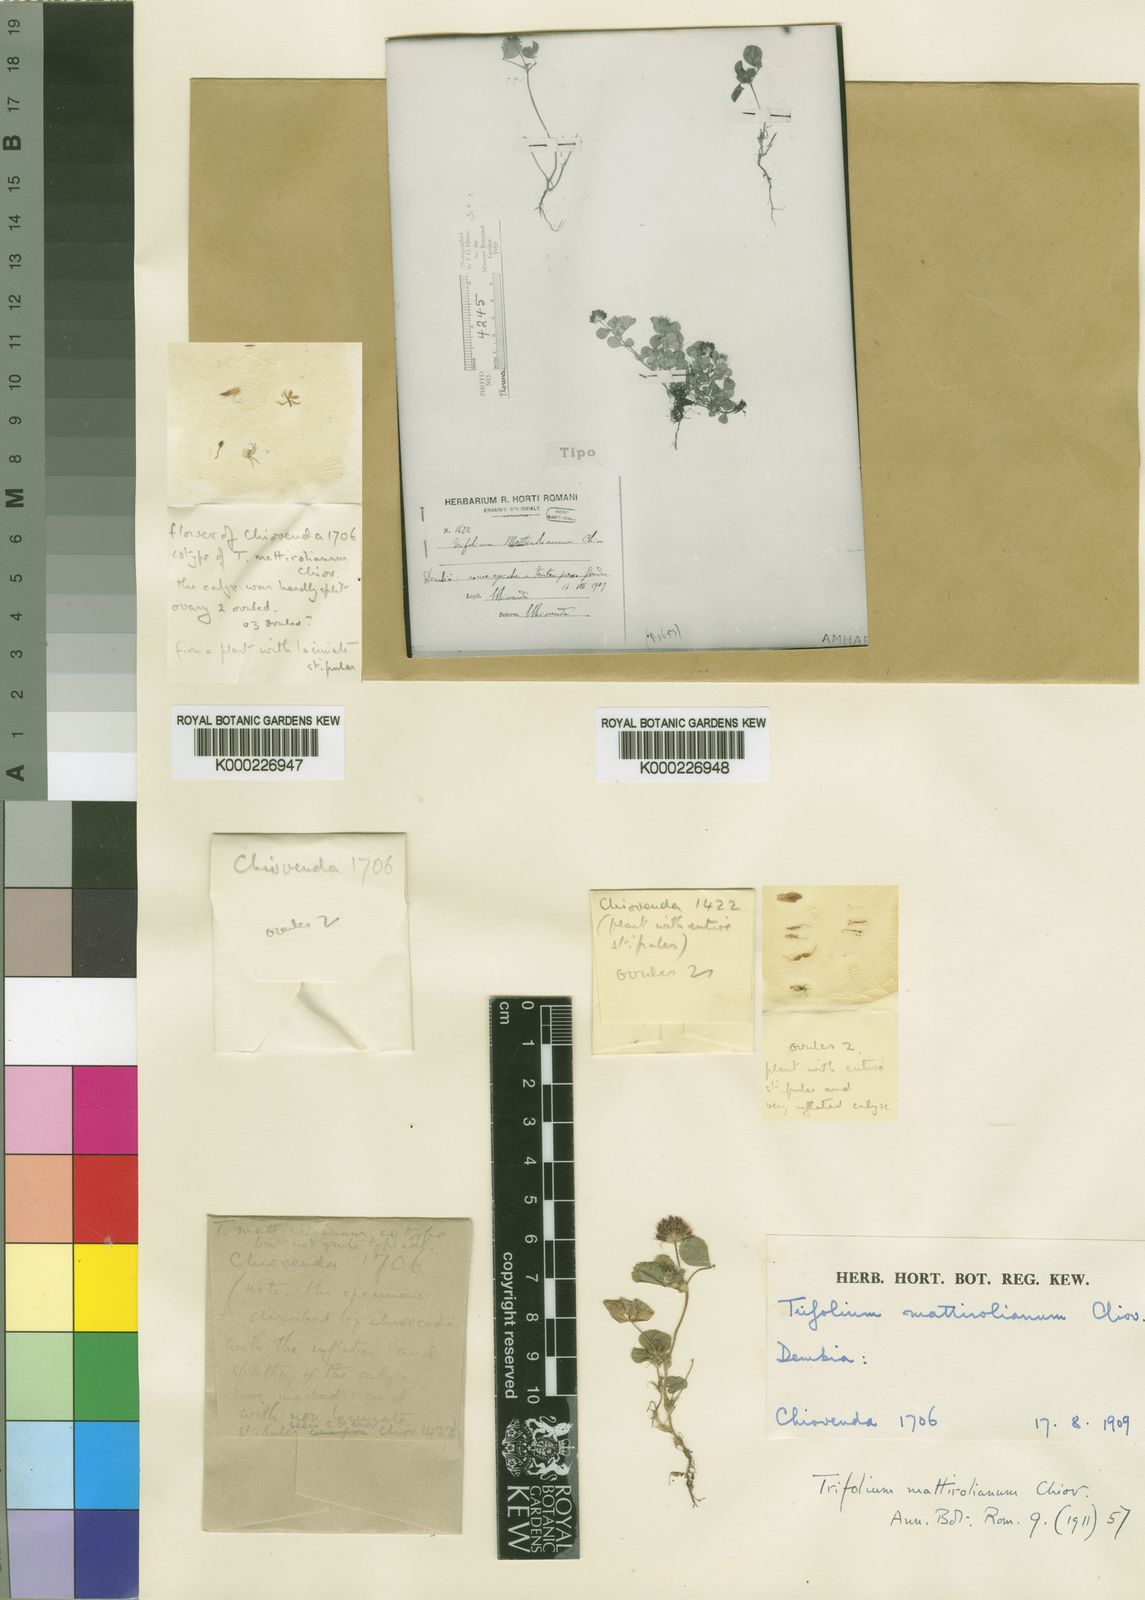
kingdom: Plantae
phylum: Tracheophyta
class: Magnoliopsida
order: Fabales
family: Fabaceae
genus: Trifolium
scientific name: Trifolium mattirolianum
